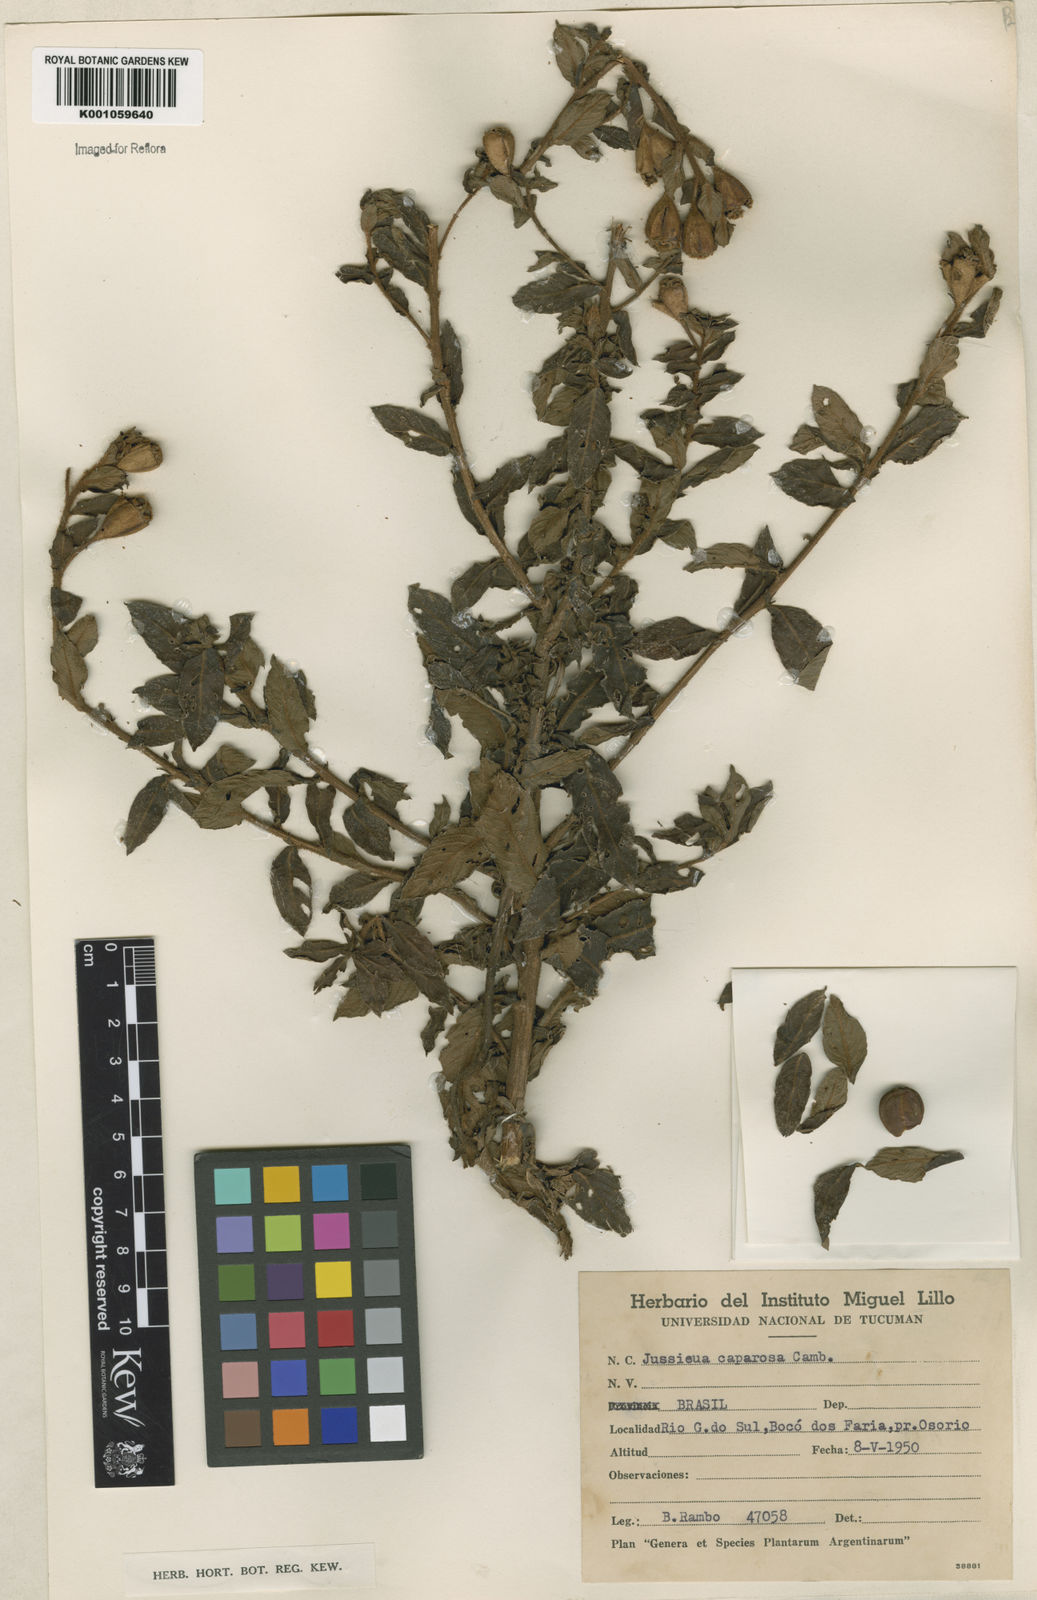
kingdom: Plantae
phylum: Tracheophyta
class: Magnoliopsida
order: Myrtales
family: Onagraceae
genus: Ludwigia
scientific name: Ludwigia caparosa
